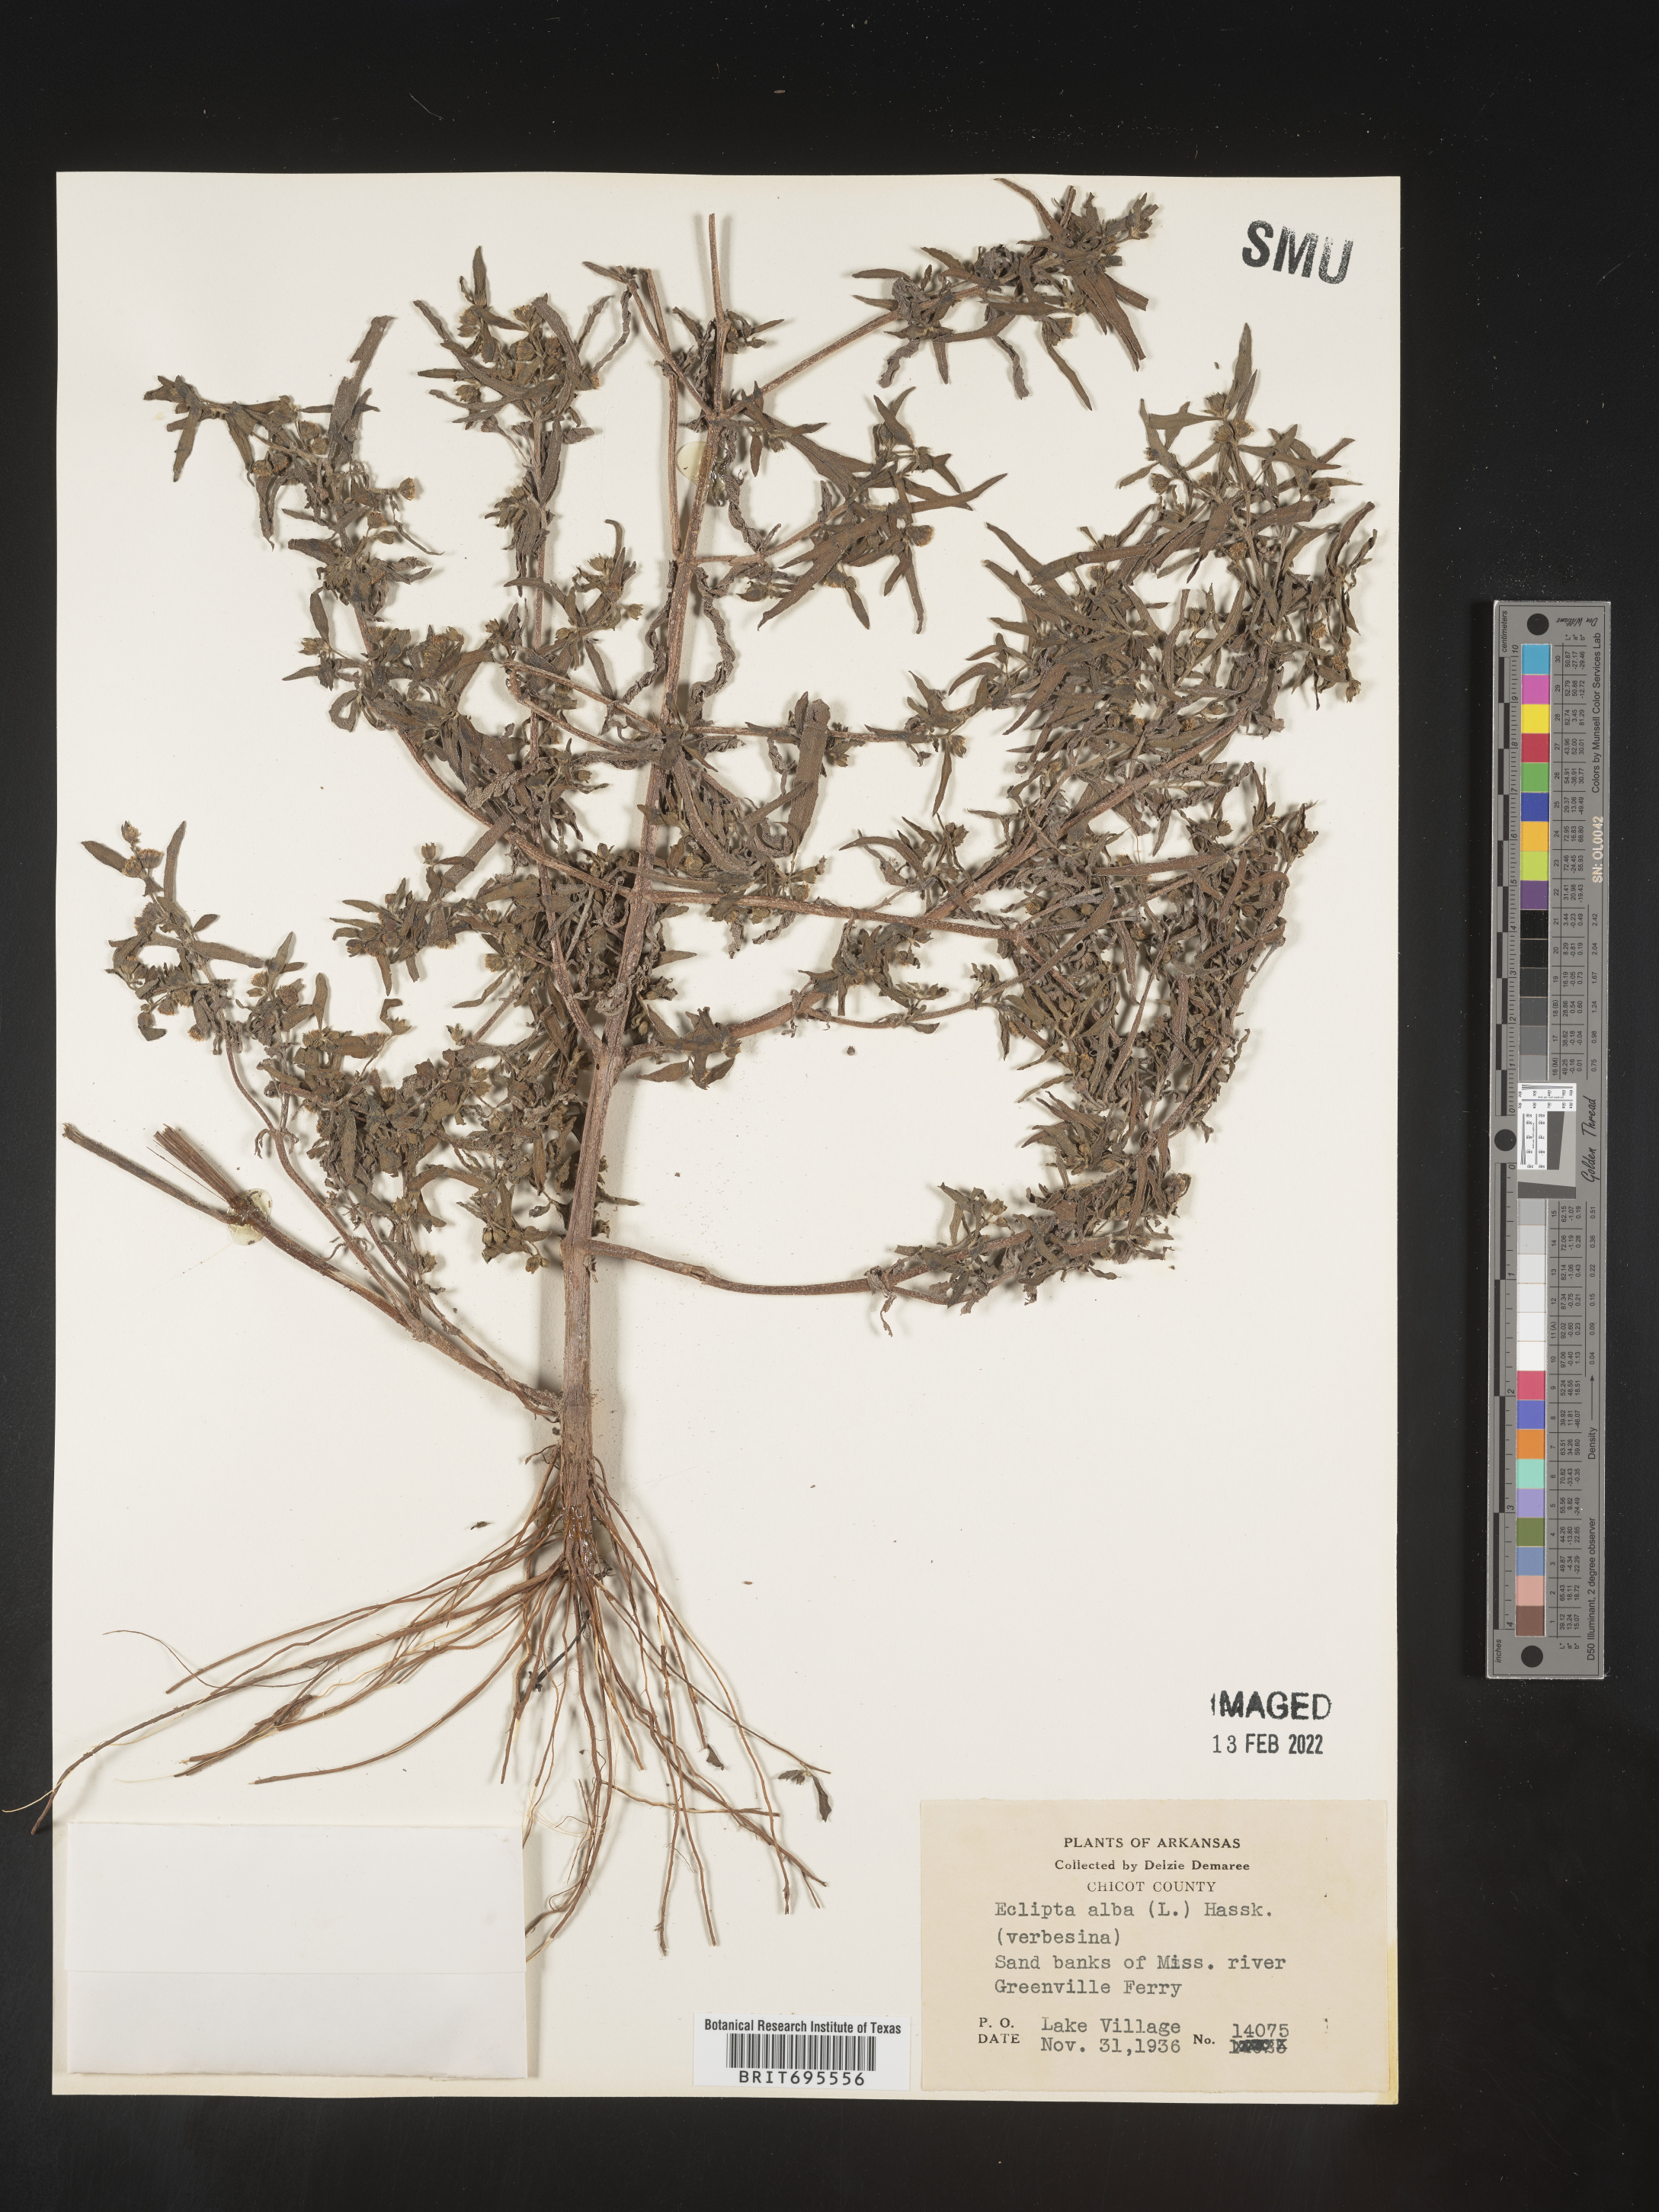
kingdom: Plantae
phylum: Tracheophyta
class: Magnoliopsida
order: Asterales
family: Asteraceae
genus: Eclipta
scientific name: Eclipta alba
